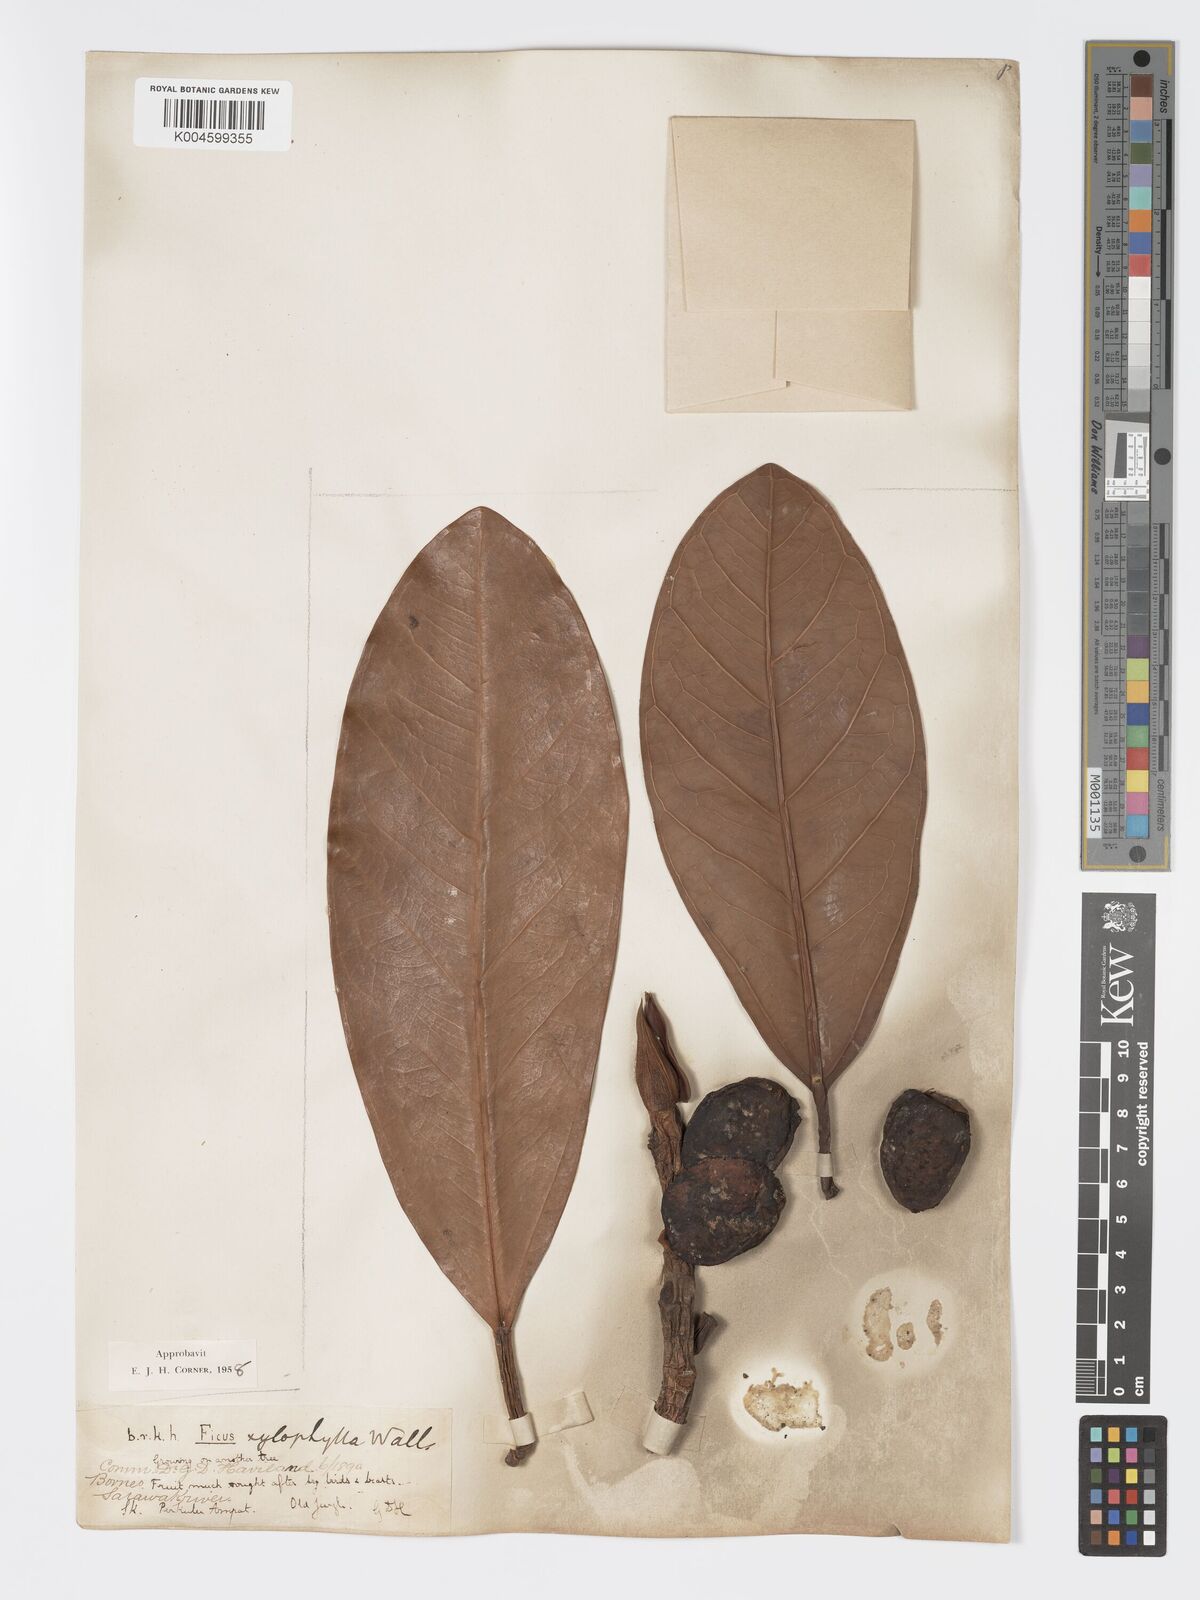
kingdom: Plantae
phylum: Tracheophyta
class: Magnoliopsida
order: Rosales
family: Moraceae
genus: Ficus
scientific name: Ficus xylophylla
